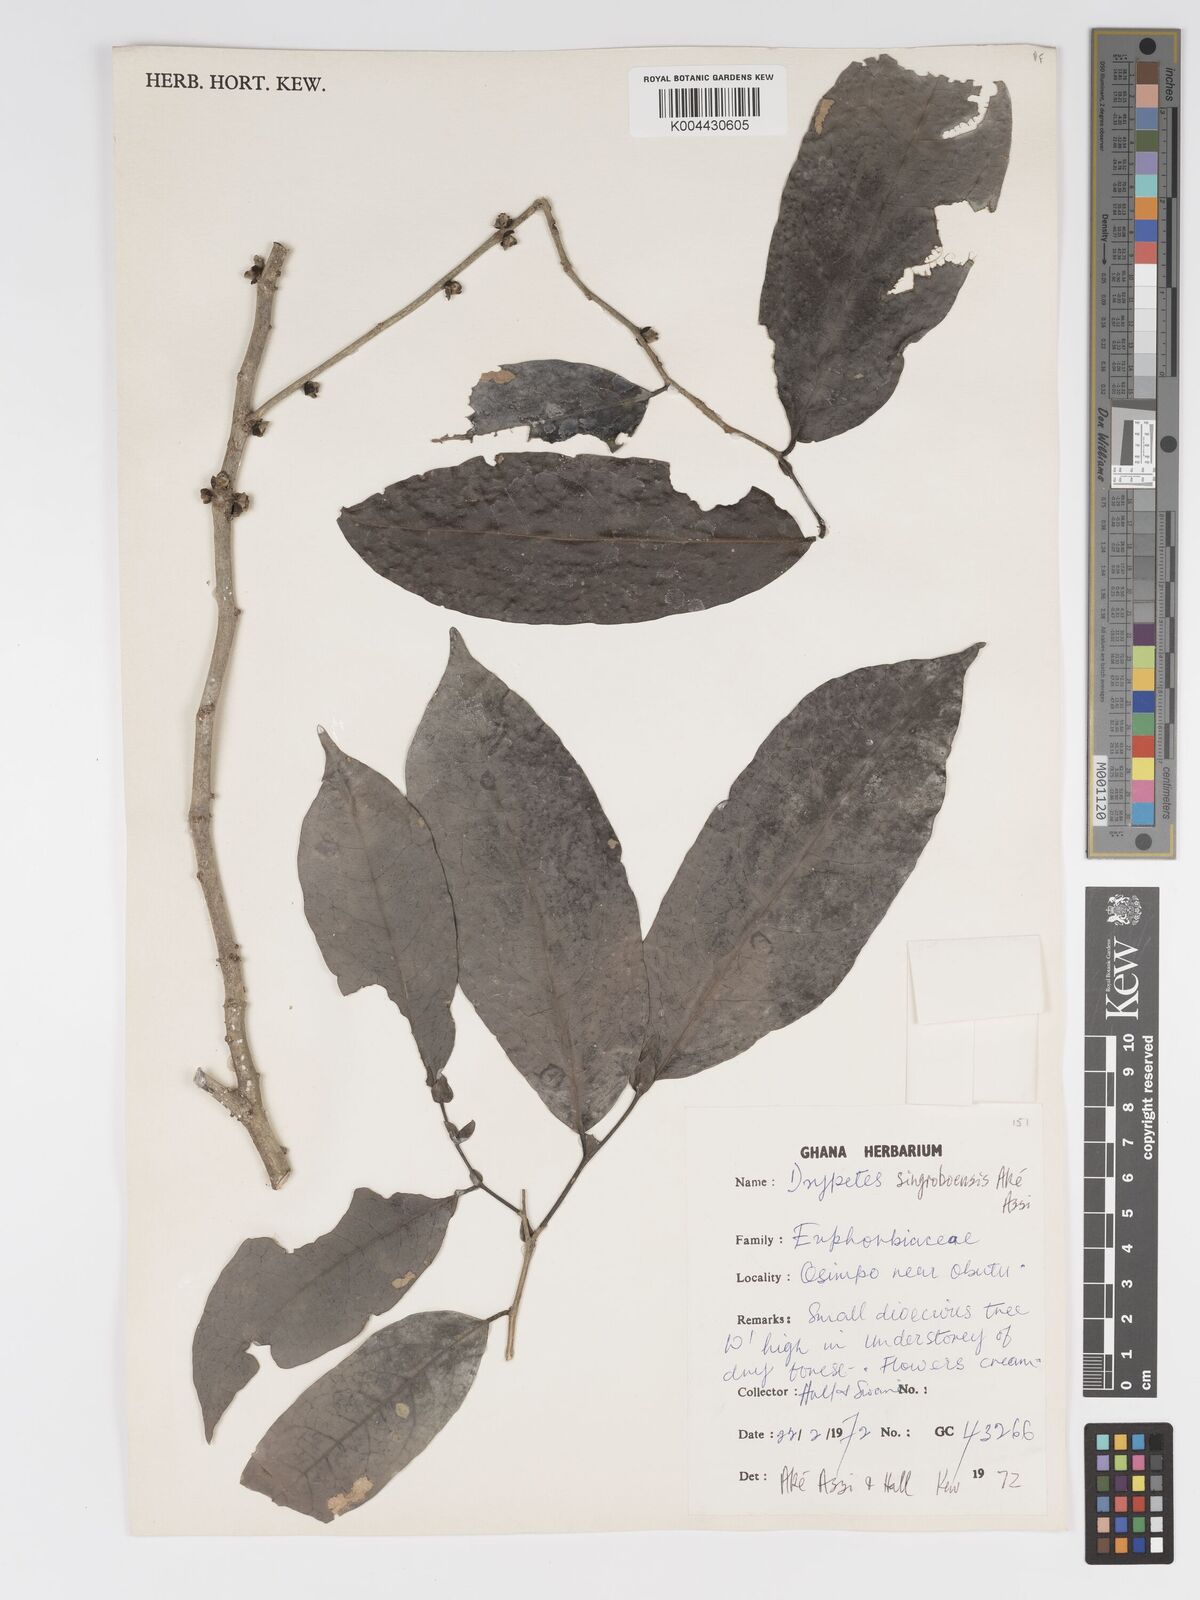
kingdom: Plantae
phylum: Tracheophyta
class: Magnoliopsida
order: Malpighiales
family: Putranjivaceae
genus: Drypetes
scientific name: Drypetes singroboensis
